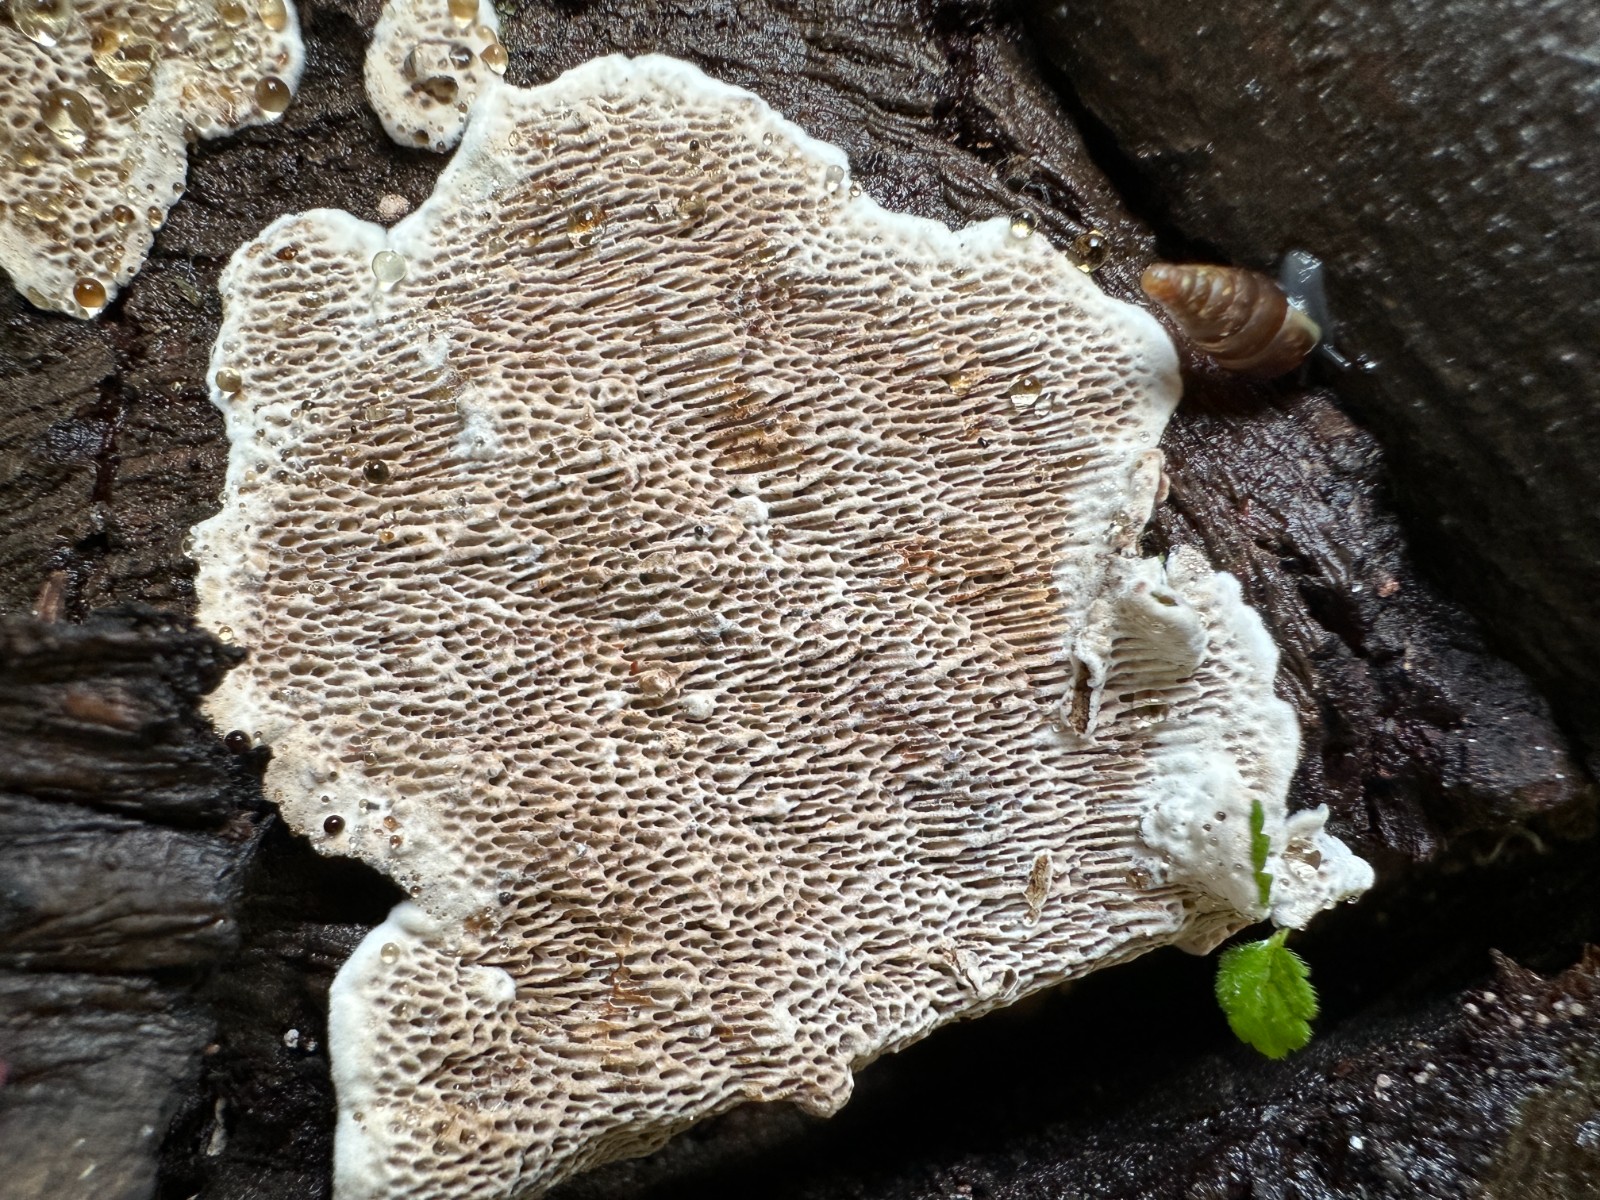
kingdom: Fungi
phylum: Basidiomycota
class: Agaricomycetes
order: Polyporales
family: Polyporaceae
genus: Podofomes
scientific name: Podofomes mollis
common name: blød begporesvamp
